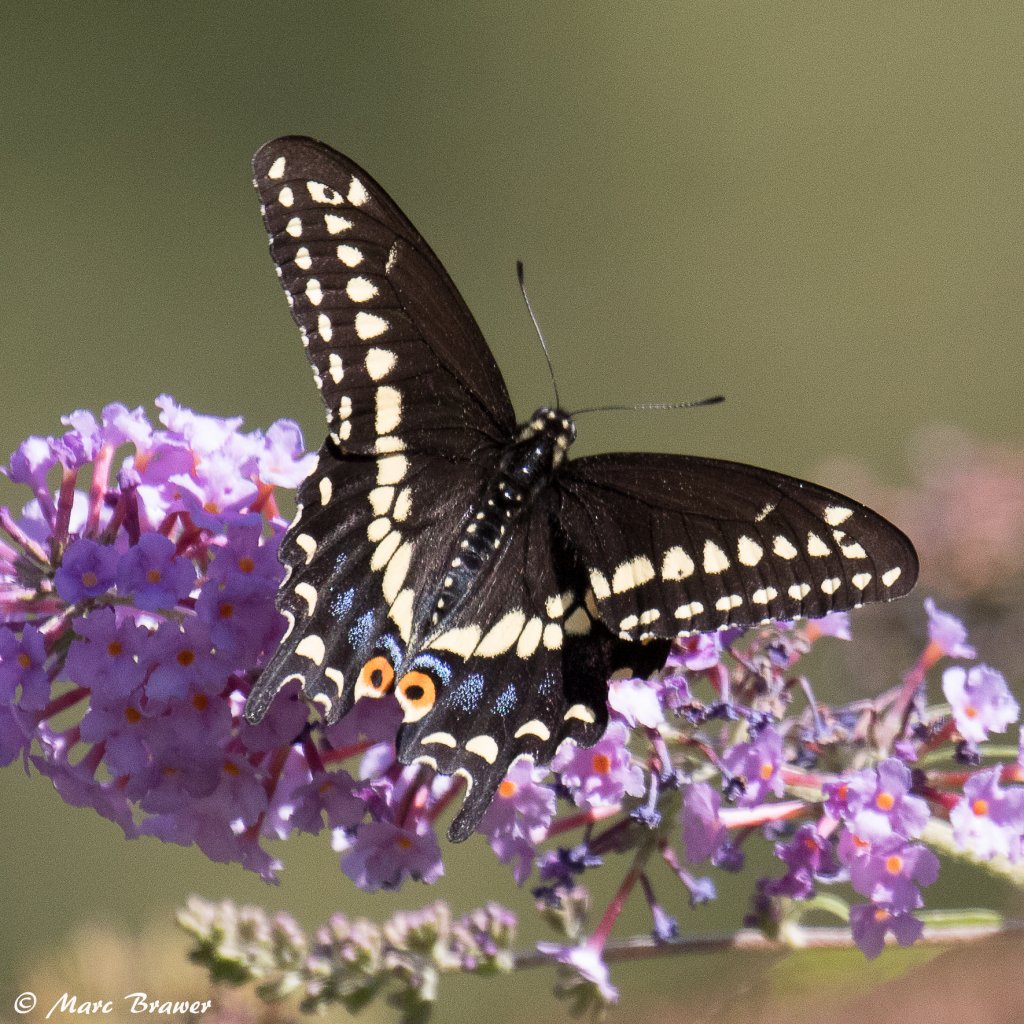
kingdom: Animalia
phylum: Arthropoda
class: Insecta
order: Lepidoptera
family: Papilionidae
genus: Papilio
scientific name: Papilio polyxenes
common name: Black Swallowtail
